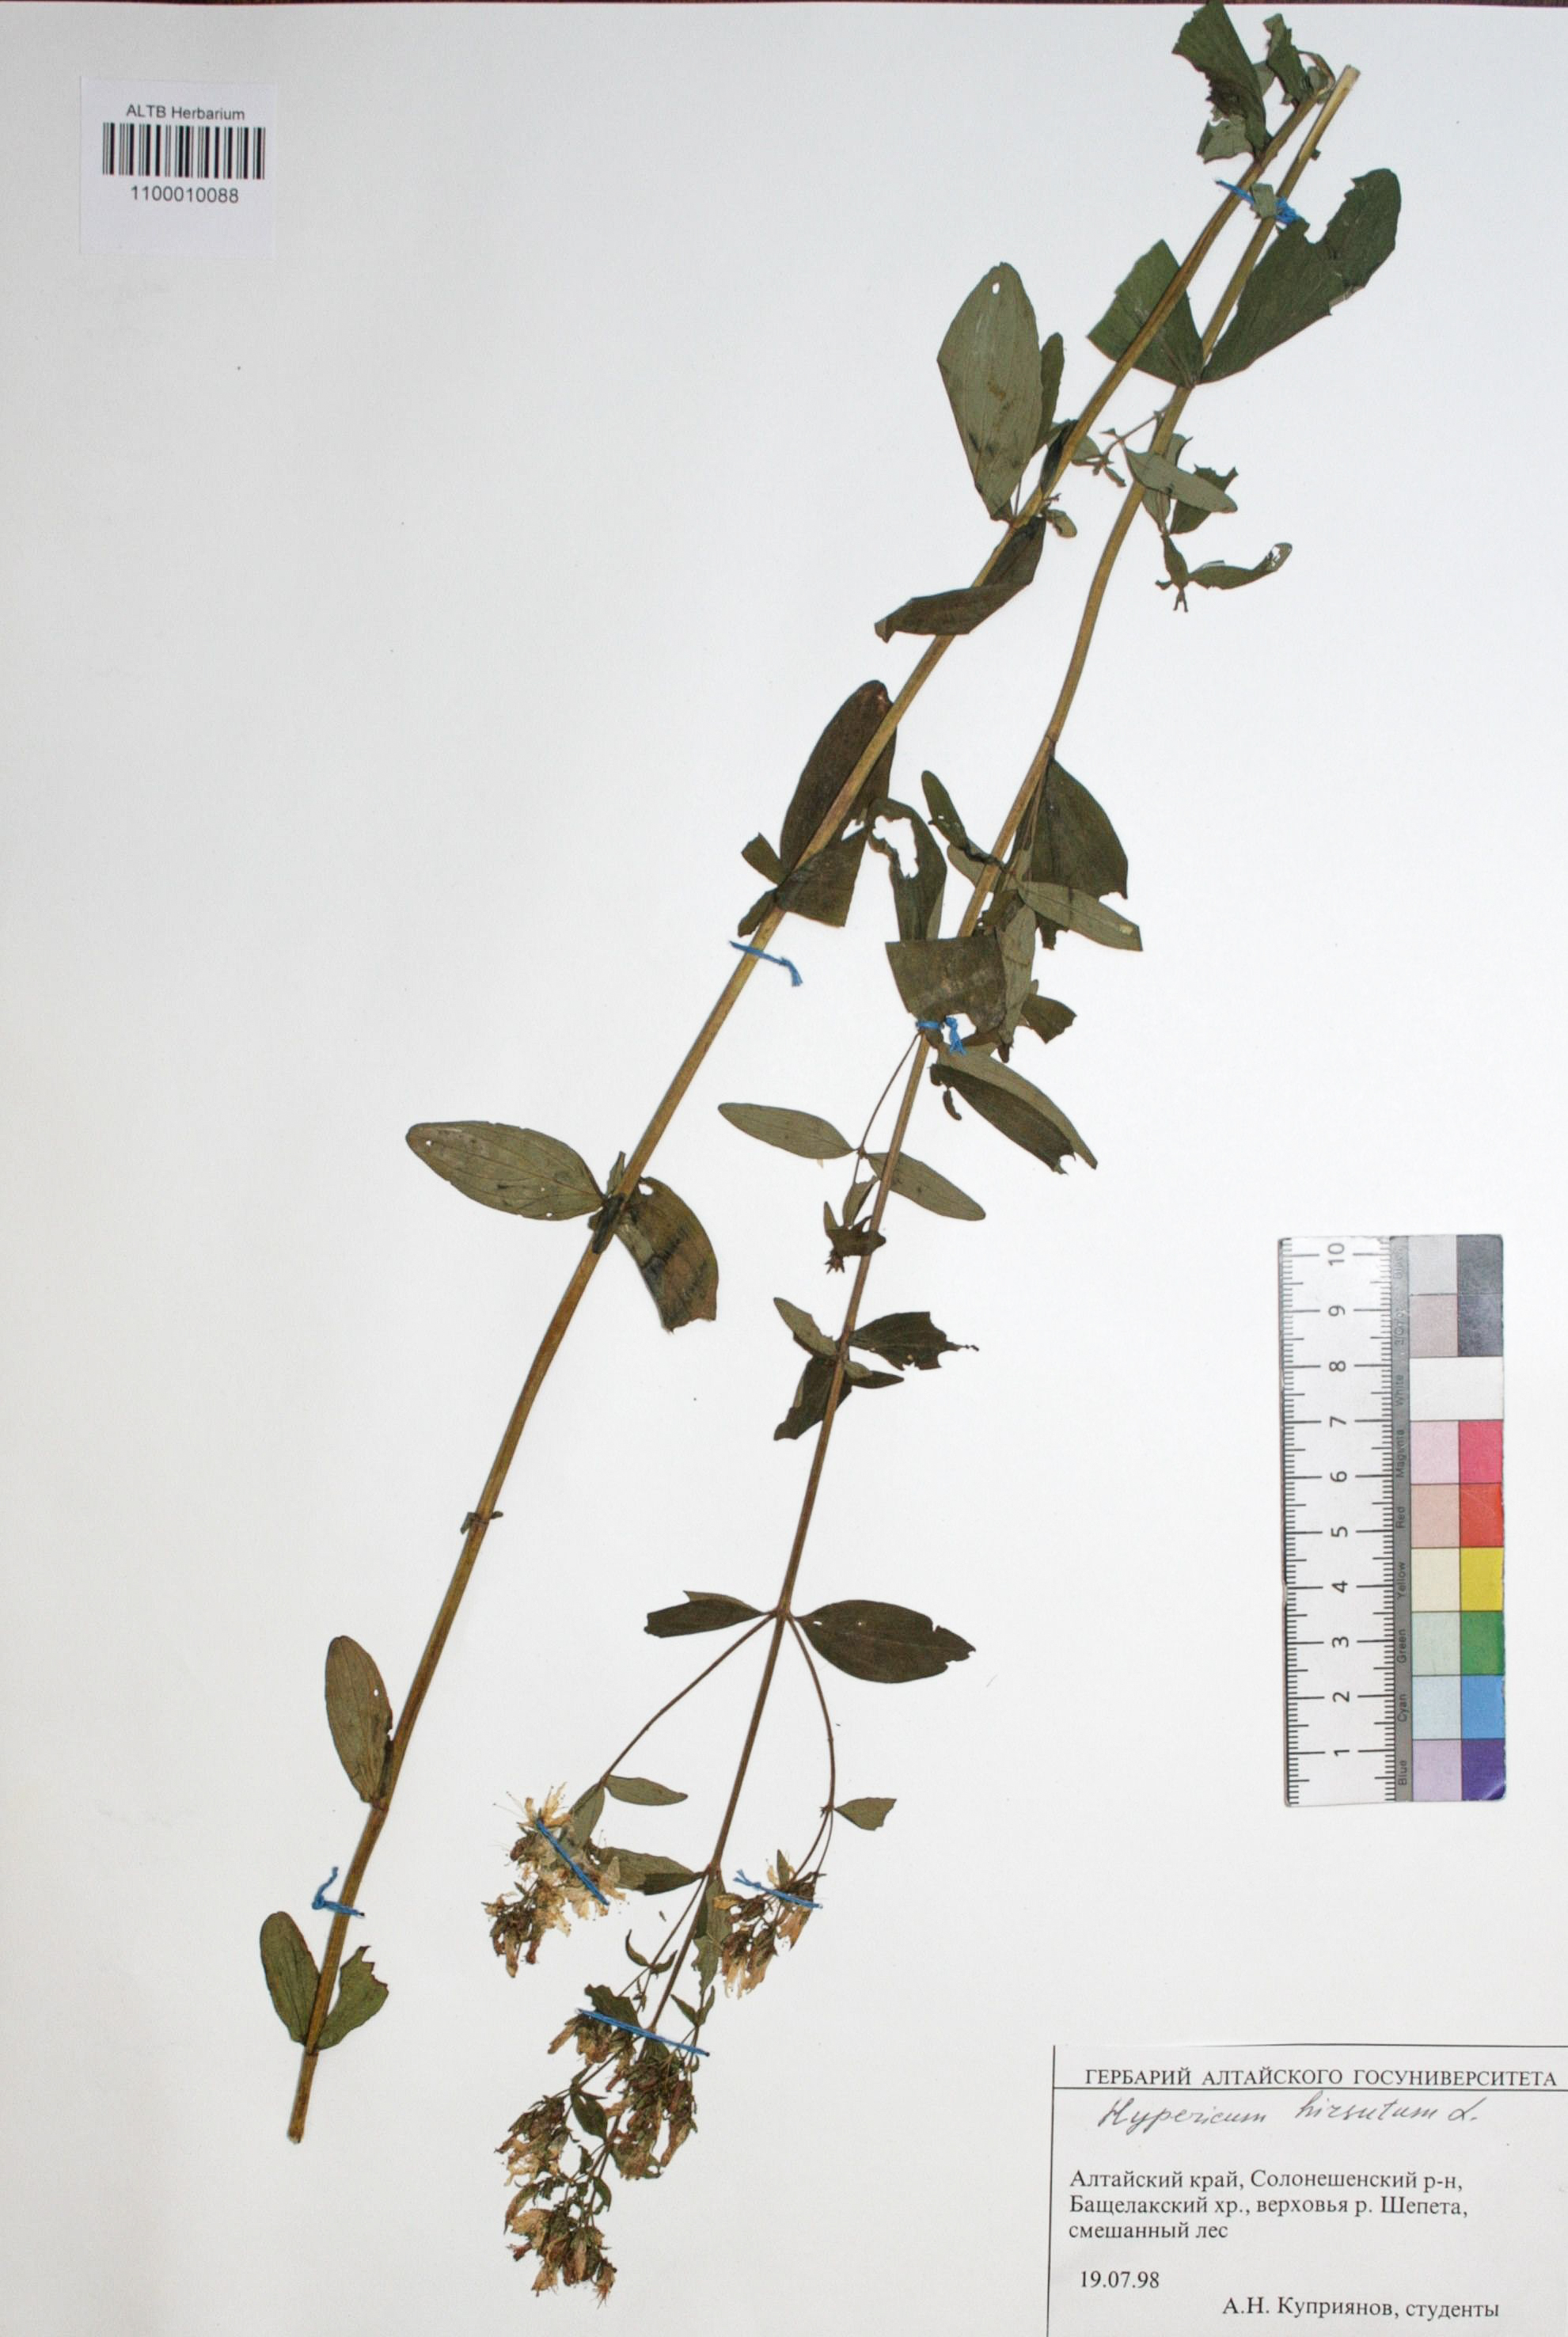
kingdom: Plantae
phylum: Tracheophyta
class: Magnoliopsida
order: Malpighiales
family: Hypericaceae
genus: Hypericum
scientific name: Hypericum hirsutum
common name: Hairy st. john's-wort
